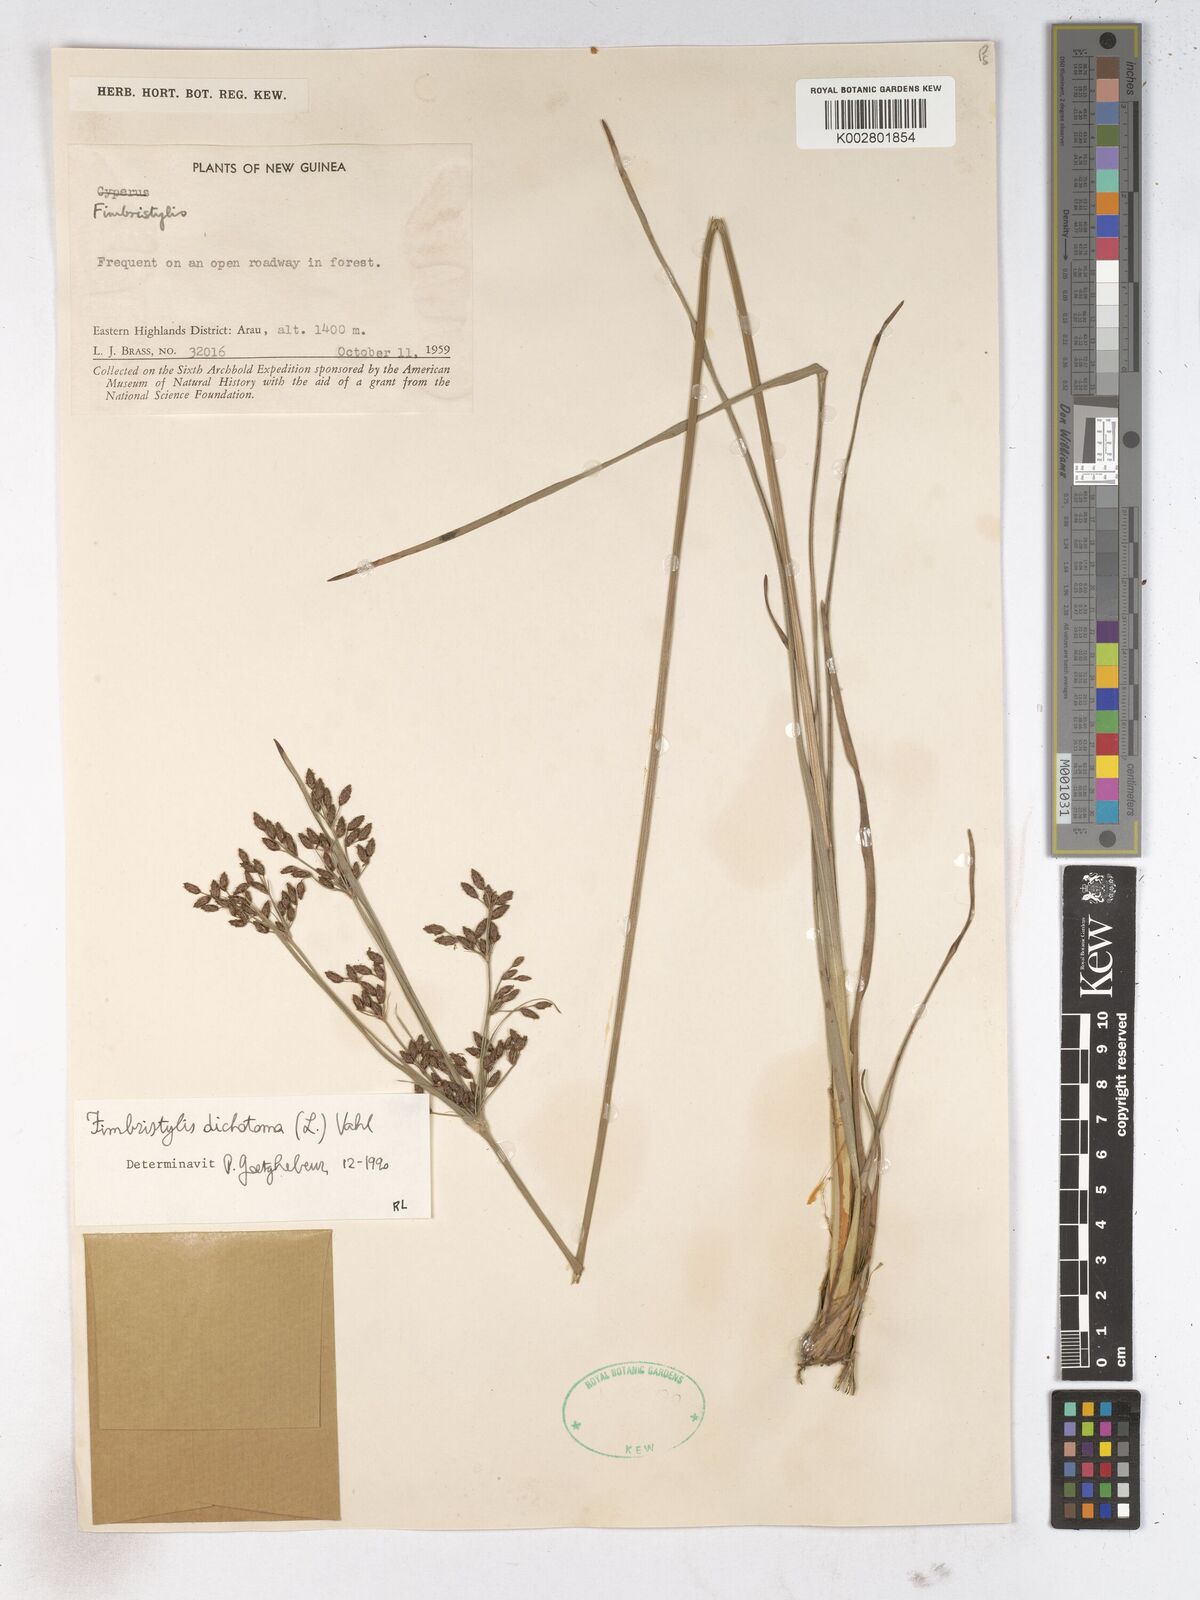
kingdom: Plantae
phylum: Tracheophyta
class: Liliopsida
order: Poales
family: Cyperaceae
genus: Fimbristylis
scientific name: Fimbristylis dichotoma
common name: Forked fimbry
